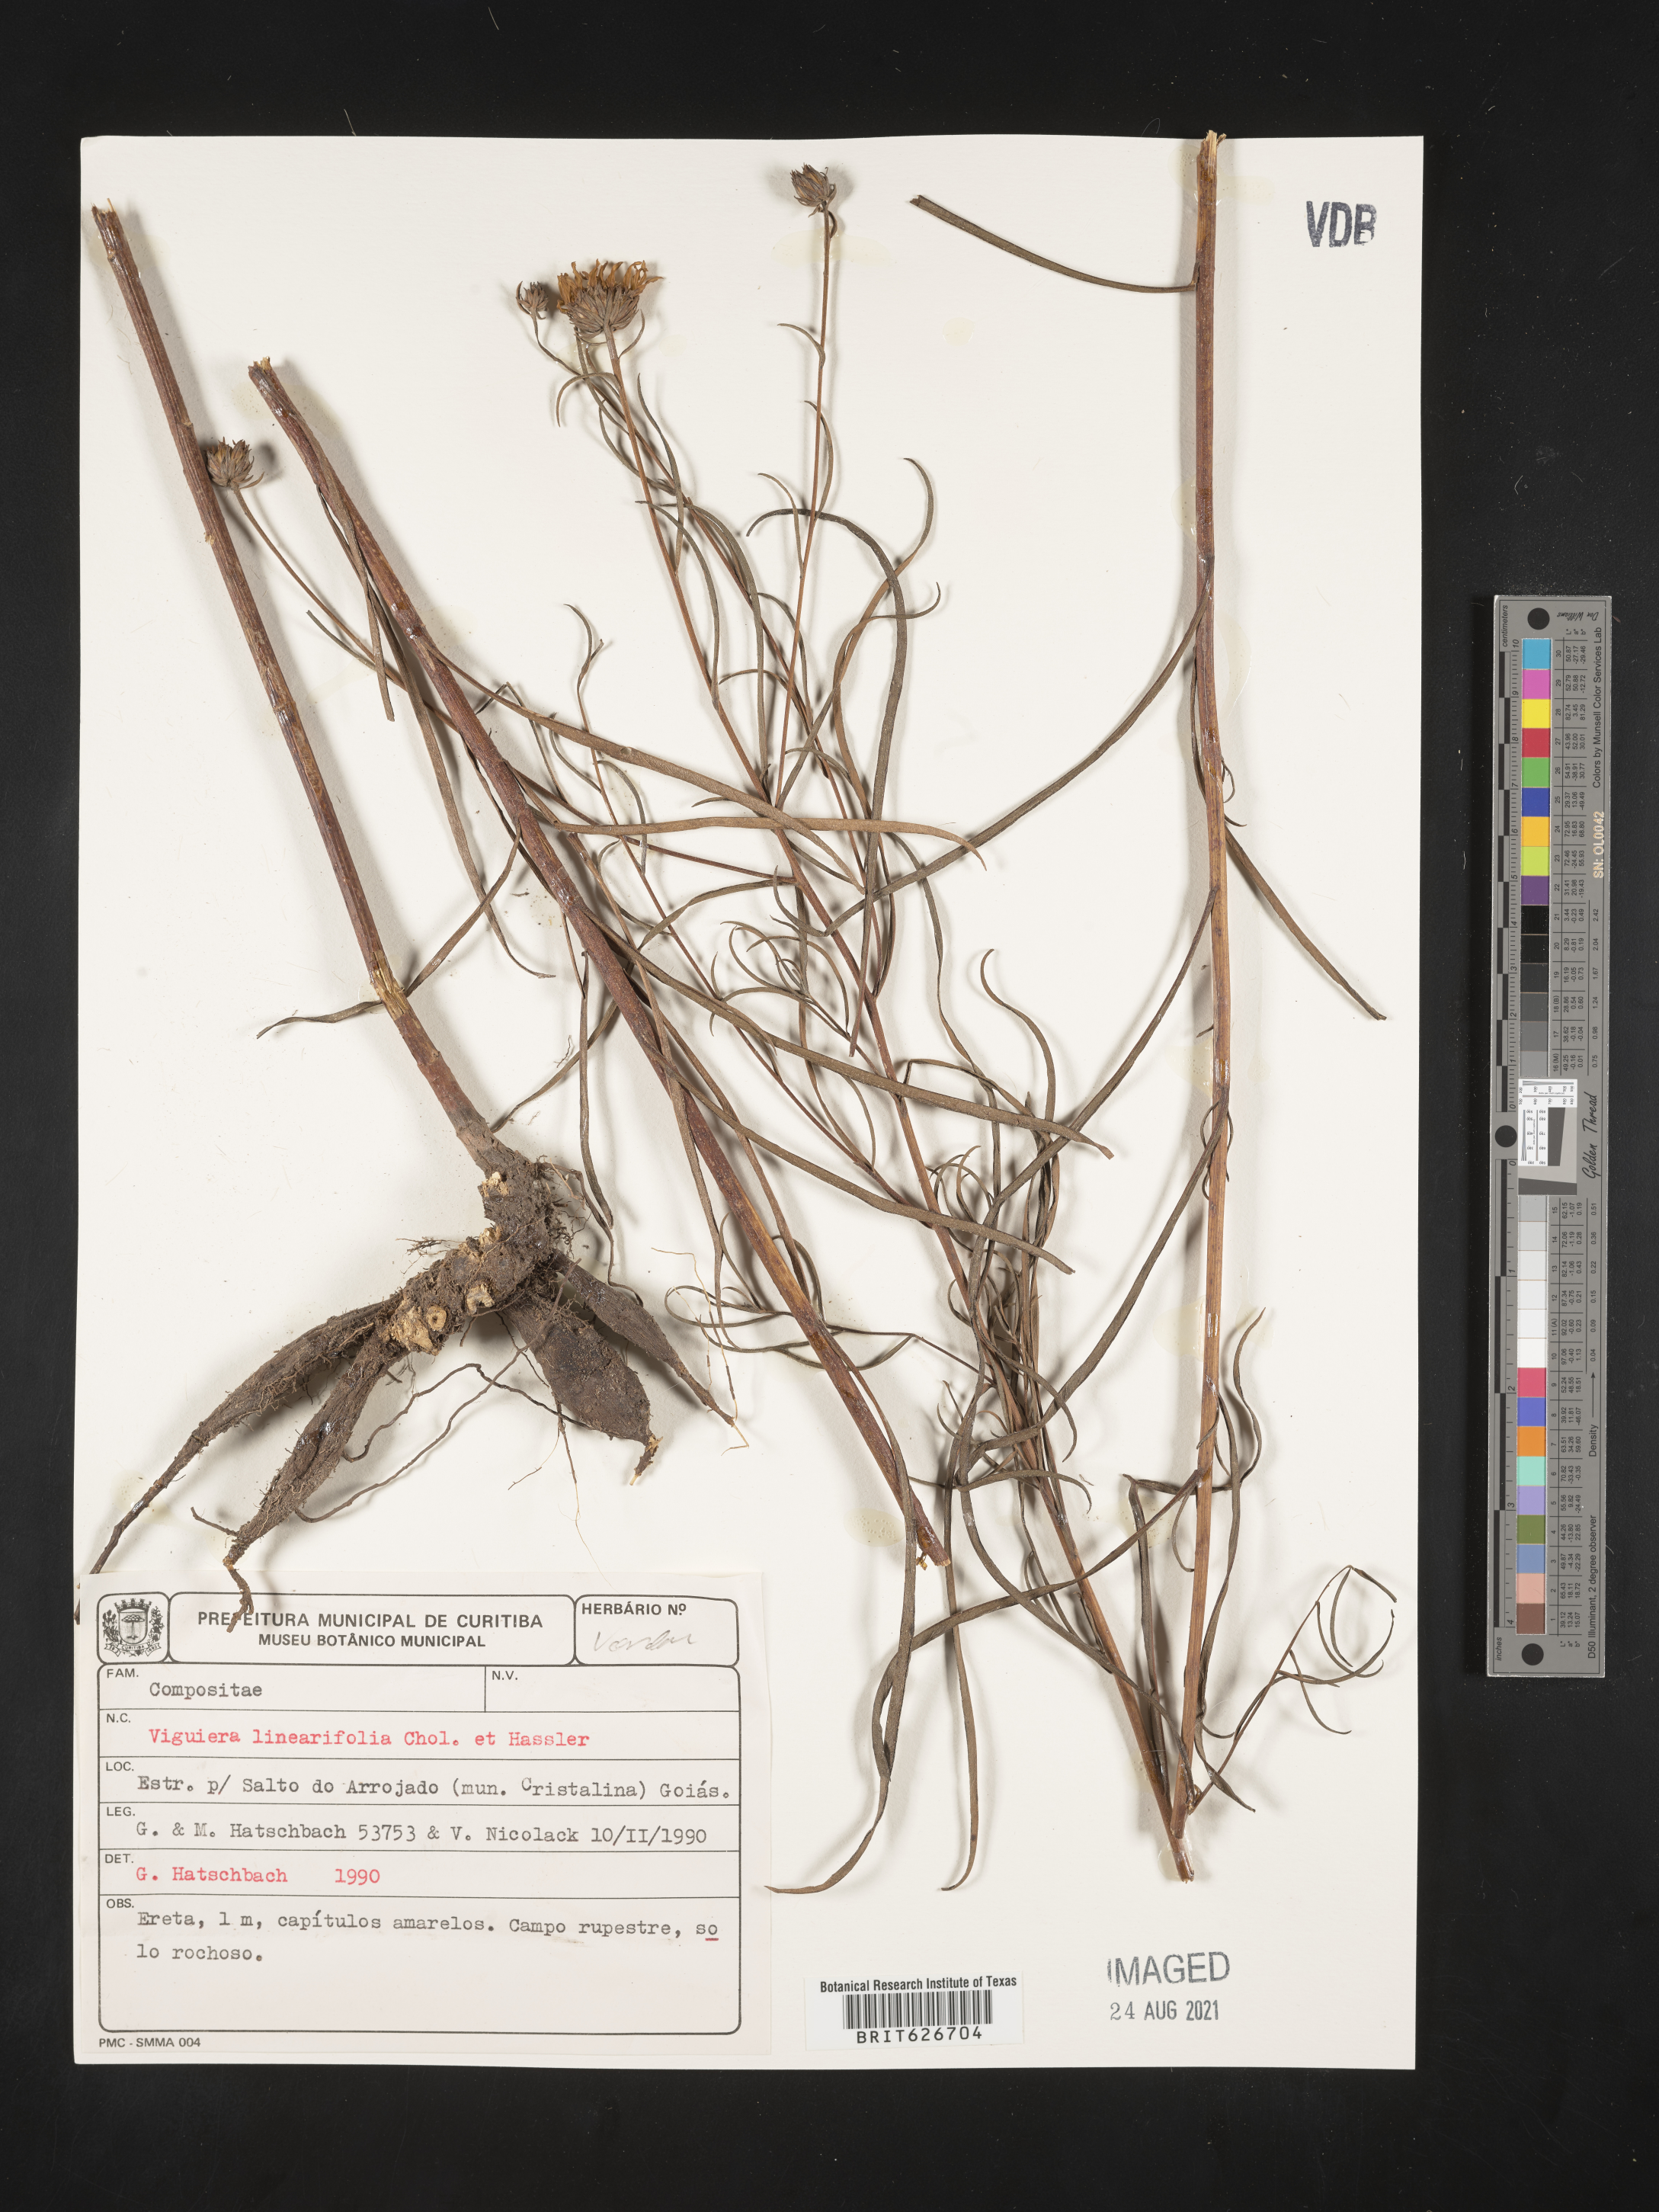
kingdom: Plantae
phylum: Tracheophyta
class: Magnoliopsida
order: Asterales
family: Asteraceae
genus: Lessingianthus
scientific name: Lessingianthus linearifolius
